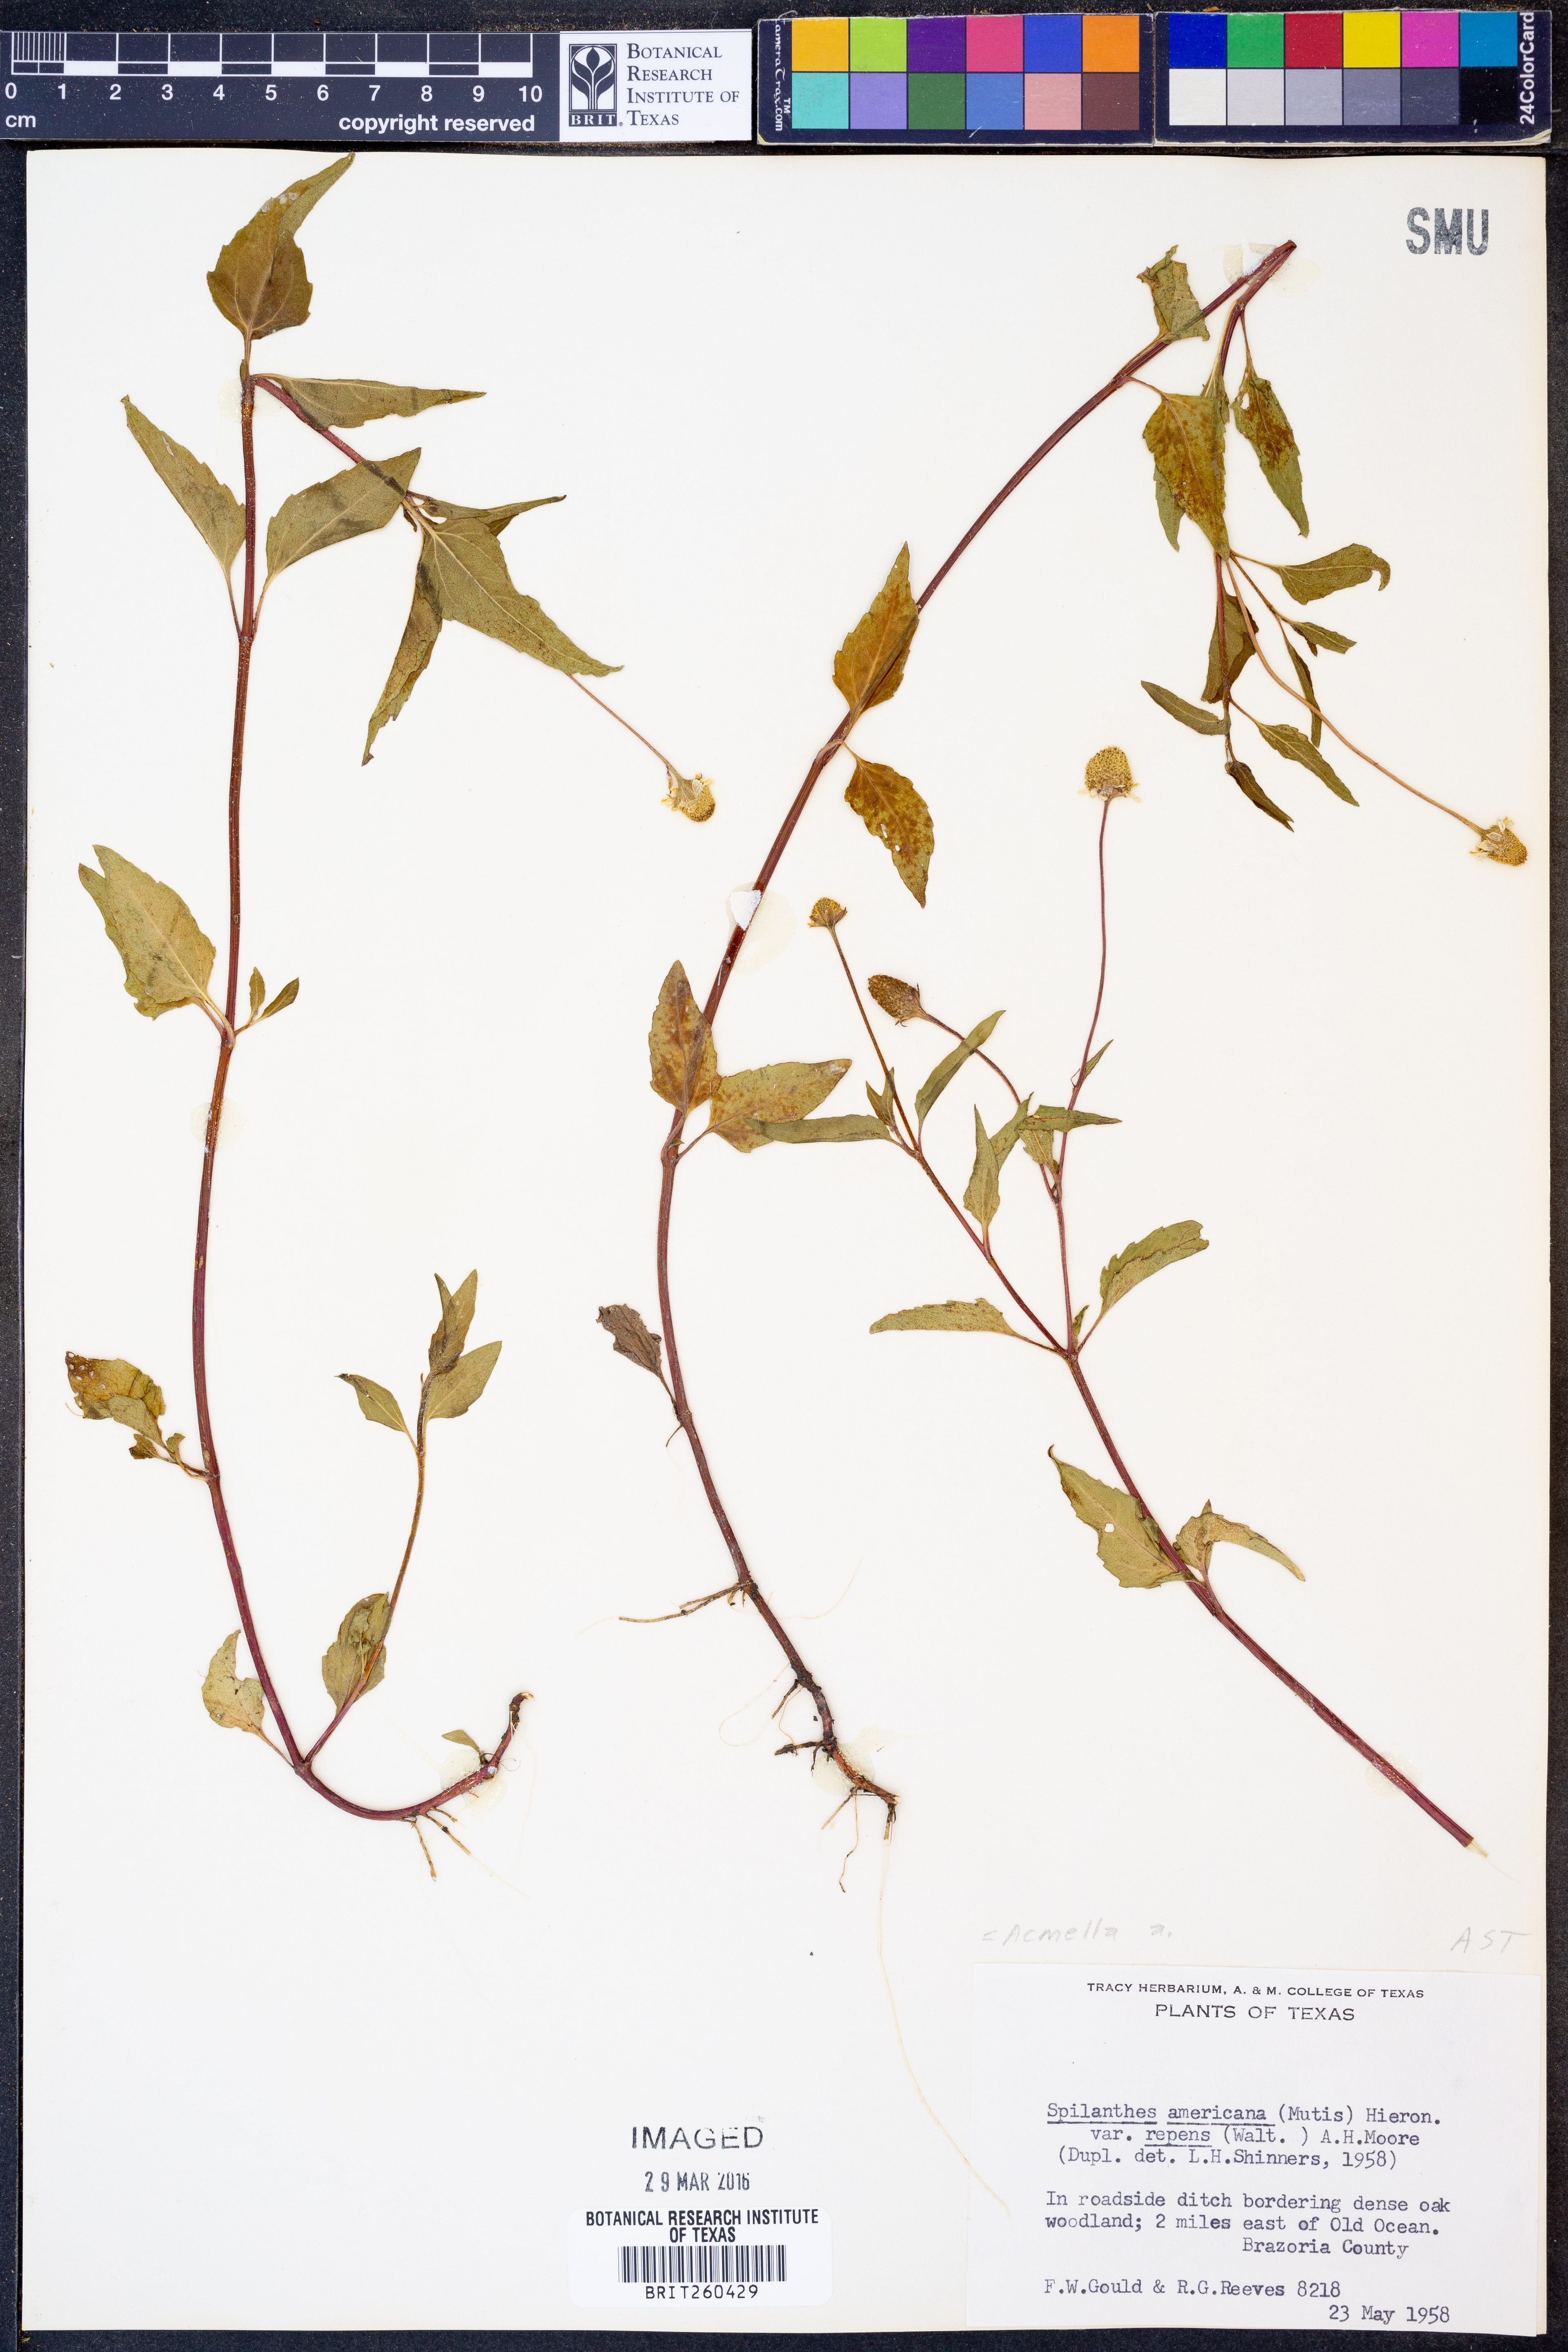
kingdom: Plantae
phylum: Tracheophyta
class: Magnoliopsida
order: Asterales
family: Asteraceae
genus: Acmella
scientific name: Acmella
